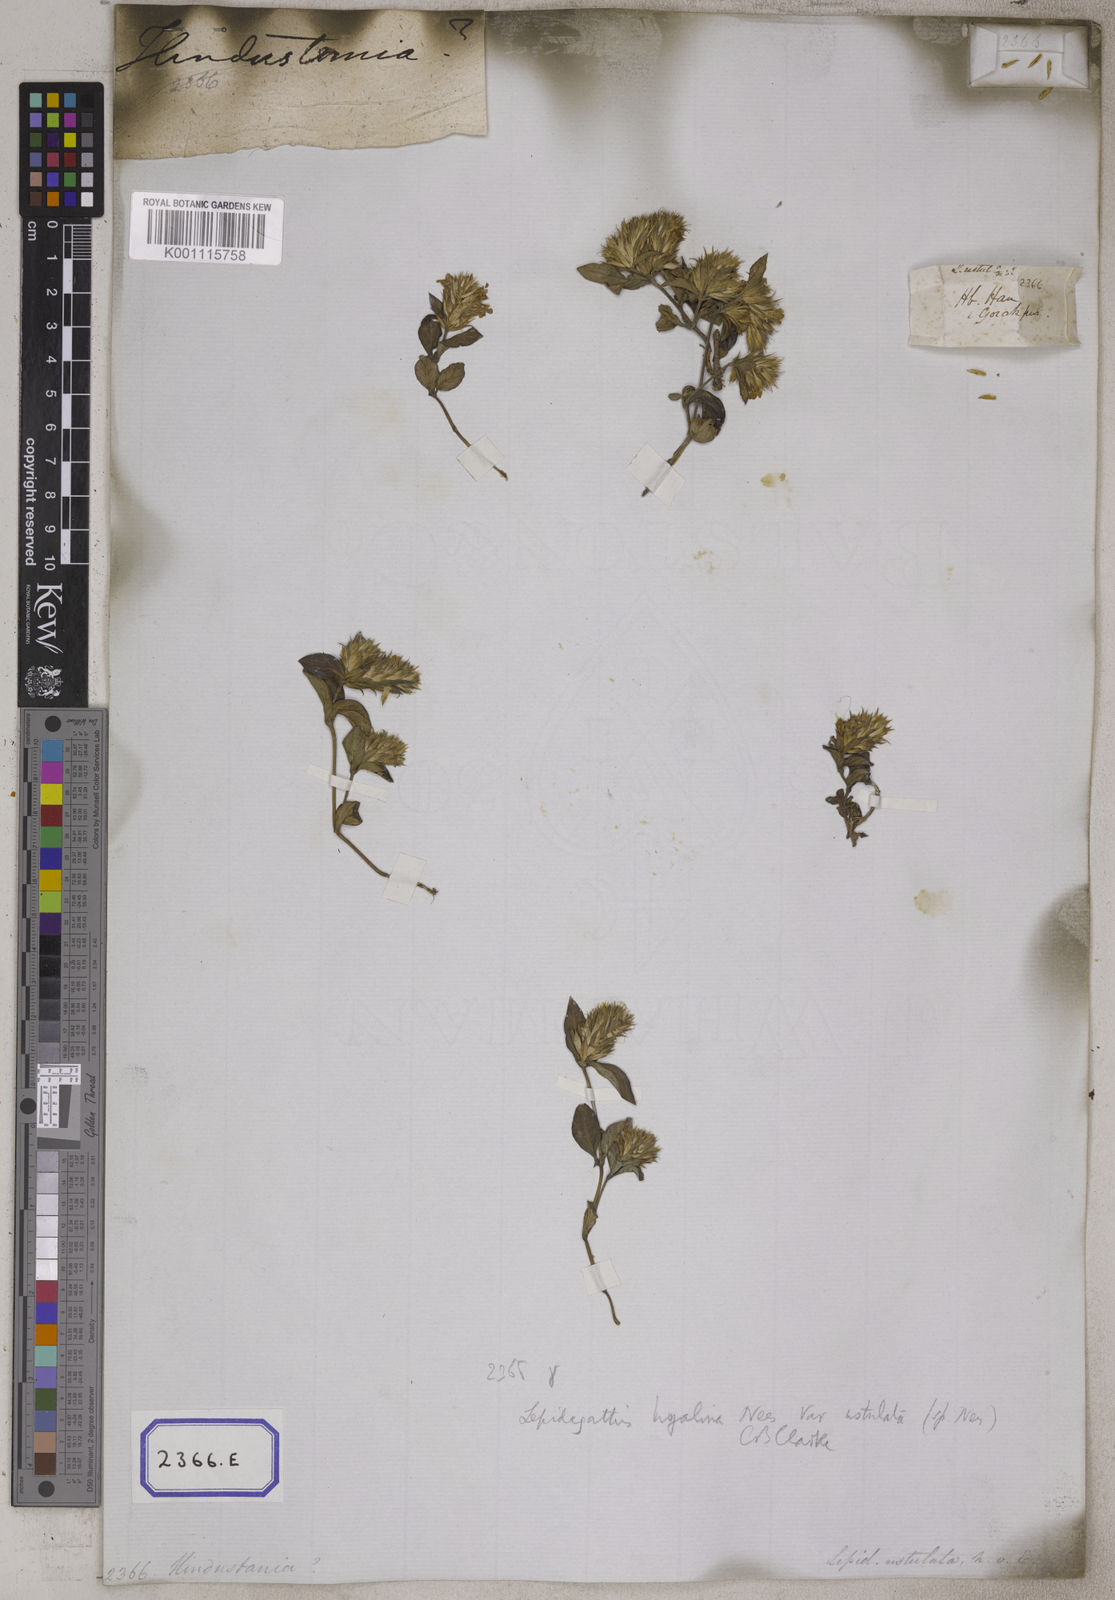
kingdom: Plantae
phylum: Tracheophyta
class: Magnoliopsida
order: Lamiales
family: Acanthaceae
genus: Lepidagathis
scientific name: Lepidagathis purpuricaulis
